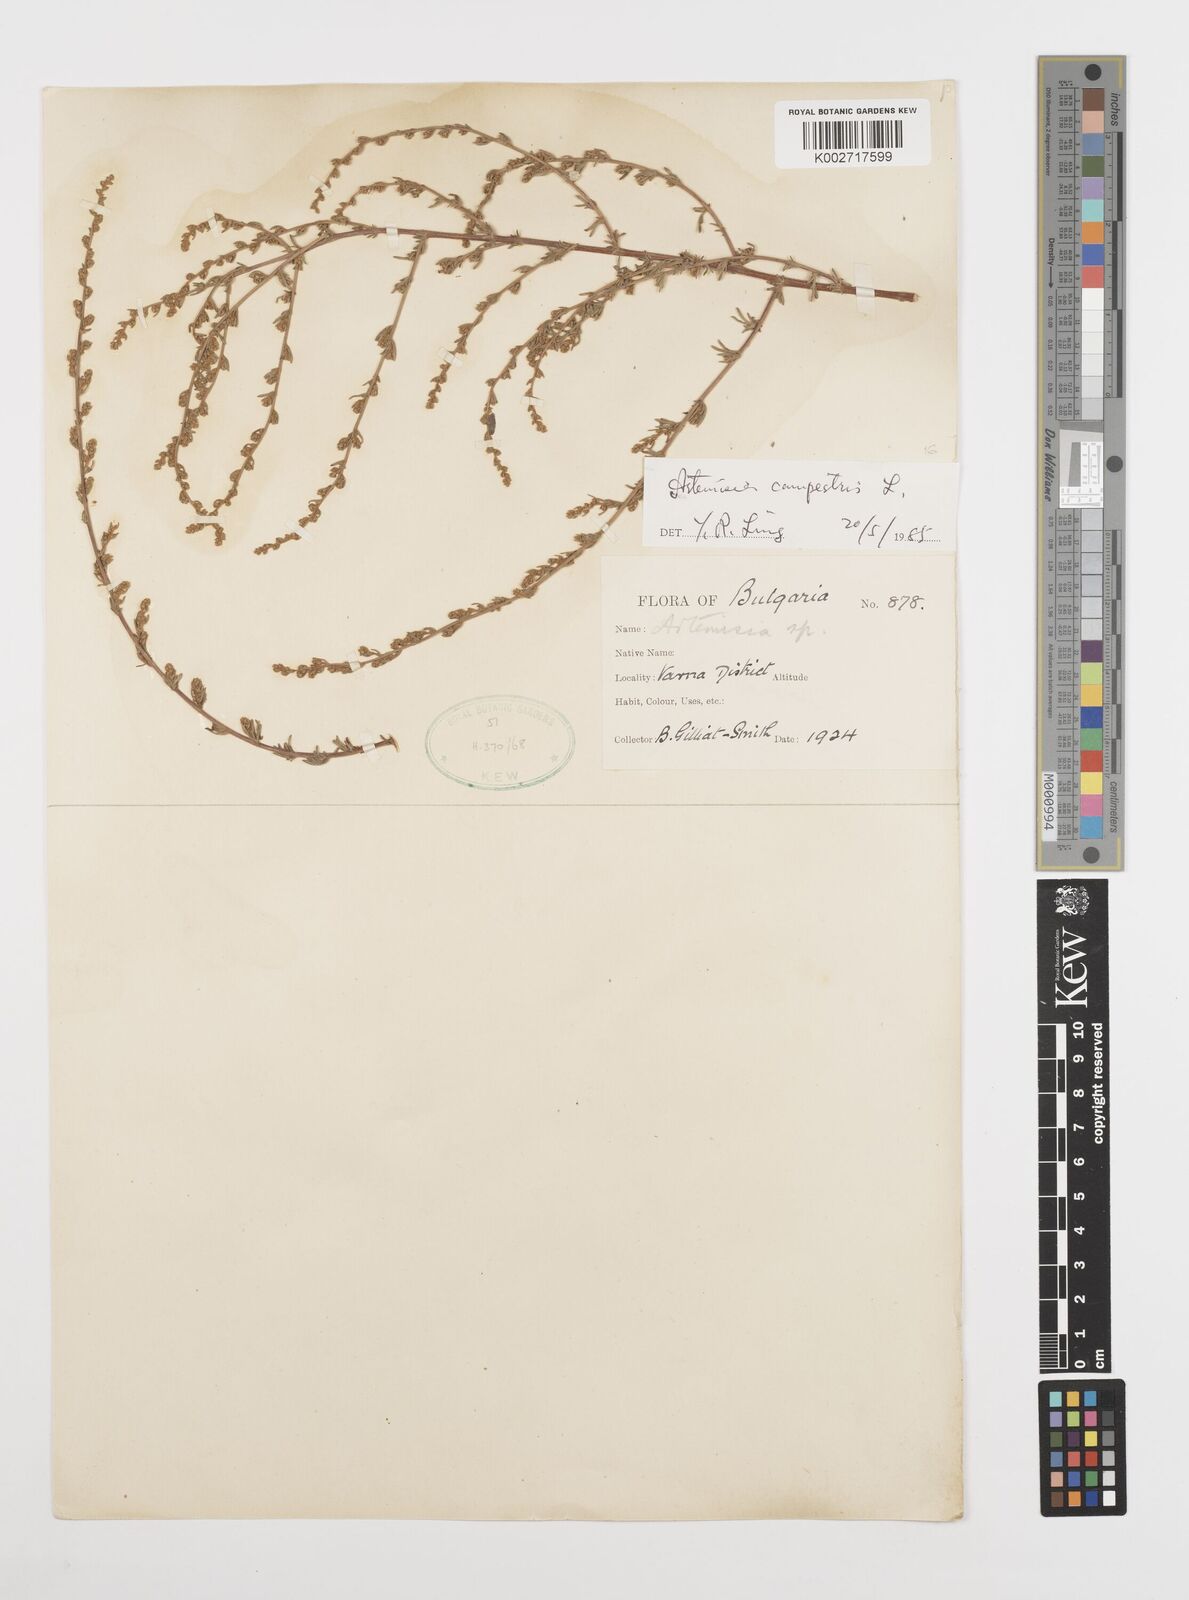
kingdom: Plantae
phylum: Tracheophyta
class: Magnoliopsida
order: Asterales
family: Asteraceae
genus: Artemisia
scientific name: Artemisia campestris
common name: Field wormwood
